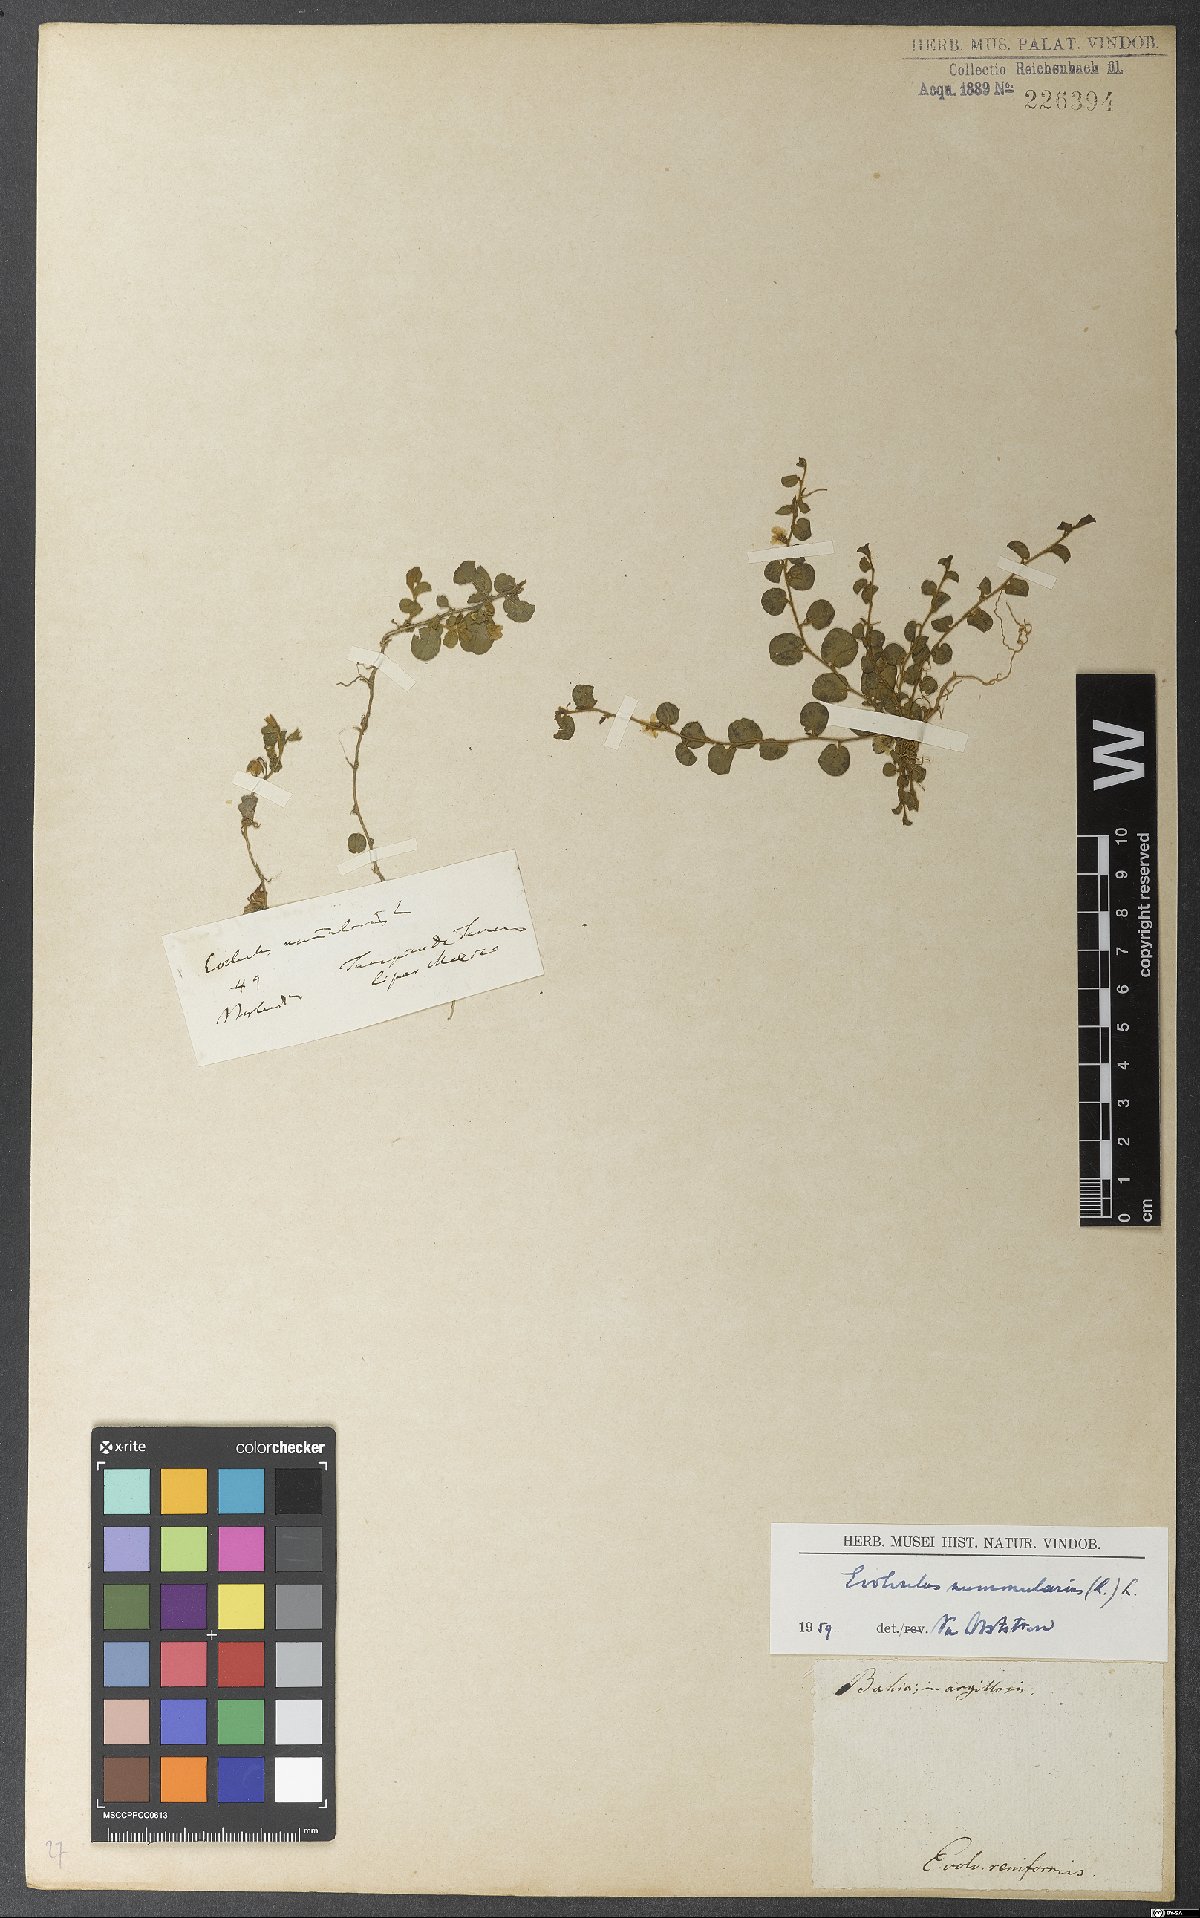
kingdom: Plantae
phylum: Tracheophyta
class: Magnoliopsida
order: Solanales
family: Convolvulaceae
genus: Evolvulus
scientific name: Evolvulus nummularius
